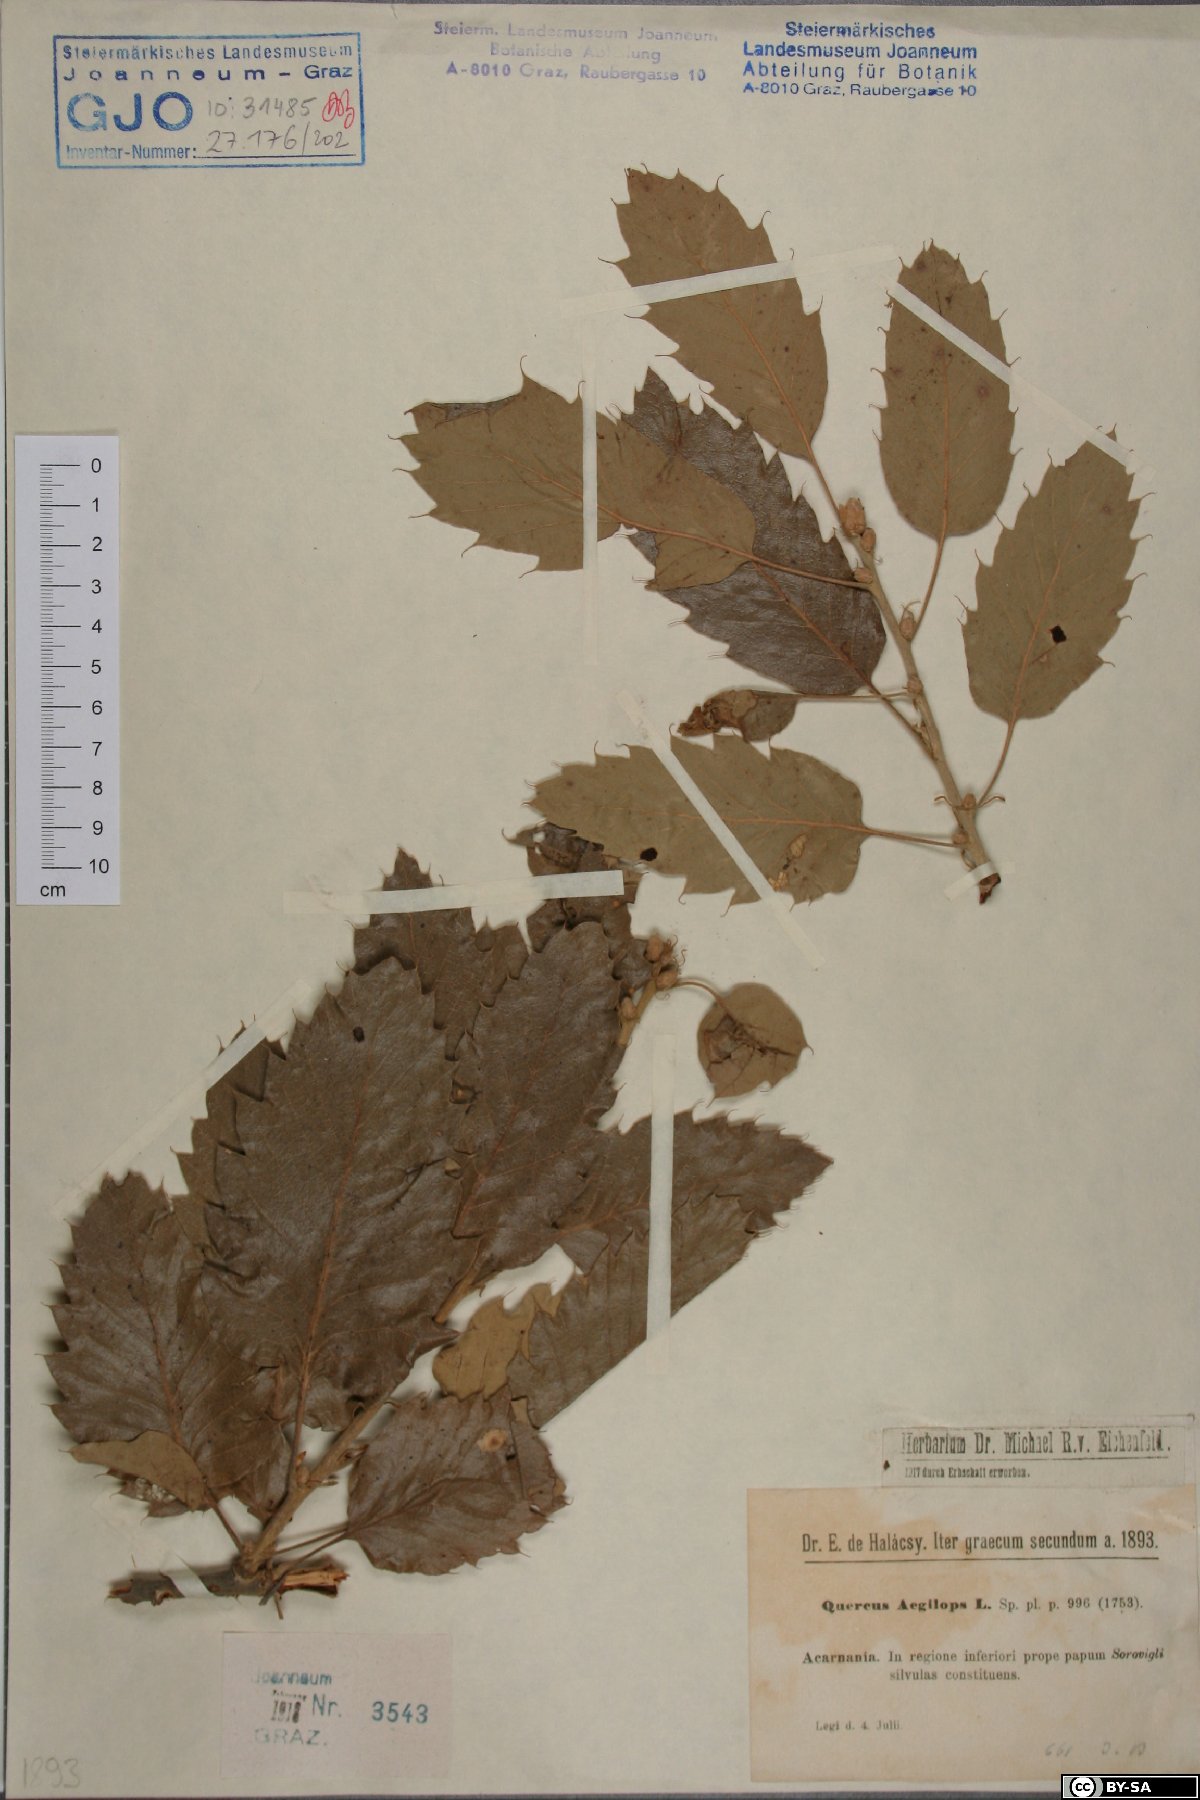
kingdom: Plantae
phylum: Tracheophyta
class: Magnoliopsida
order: Fagales
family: Fagaceae
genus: Quercus
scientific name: Quercus ithaburensis
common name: Tabor oak
